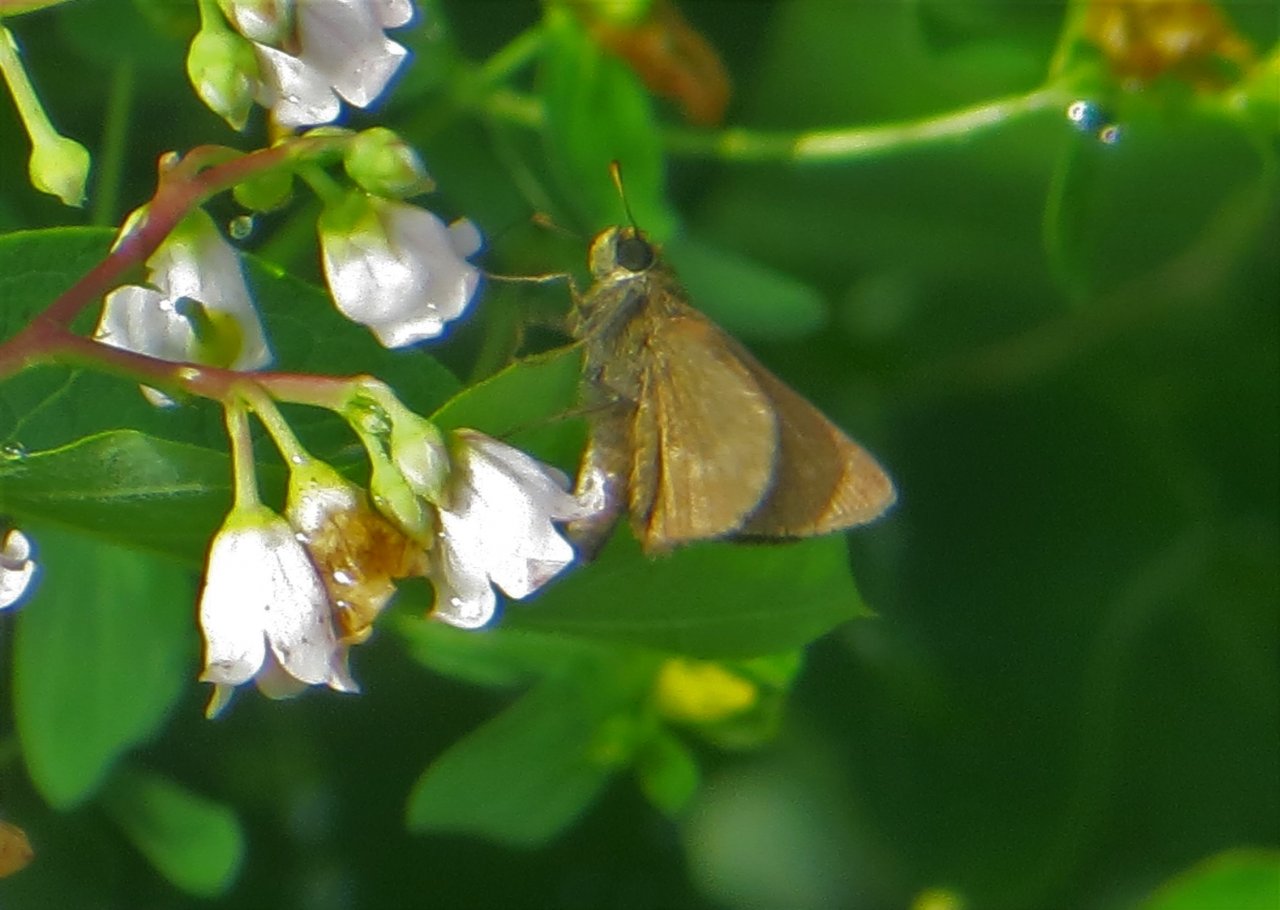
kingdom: Animalia
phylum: Arthropoda
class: Insecta
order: Lepidoptera
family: Hesperiidae
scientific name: Hesperiidae
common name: Skippers
